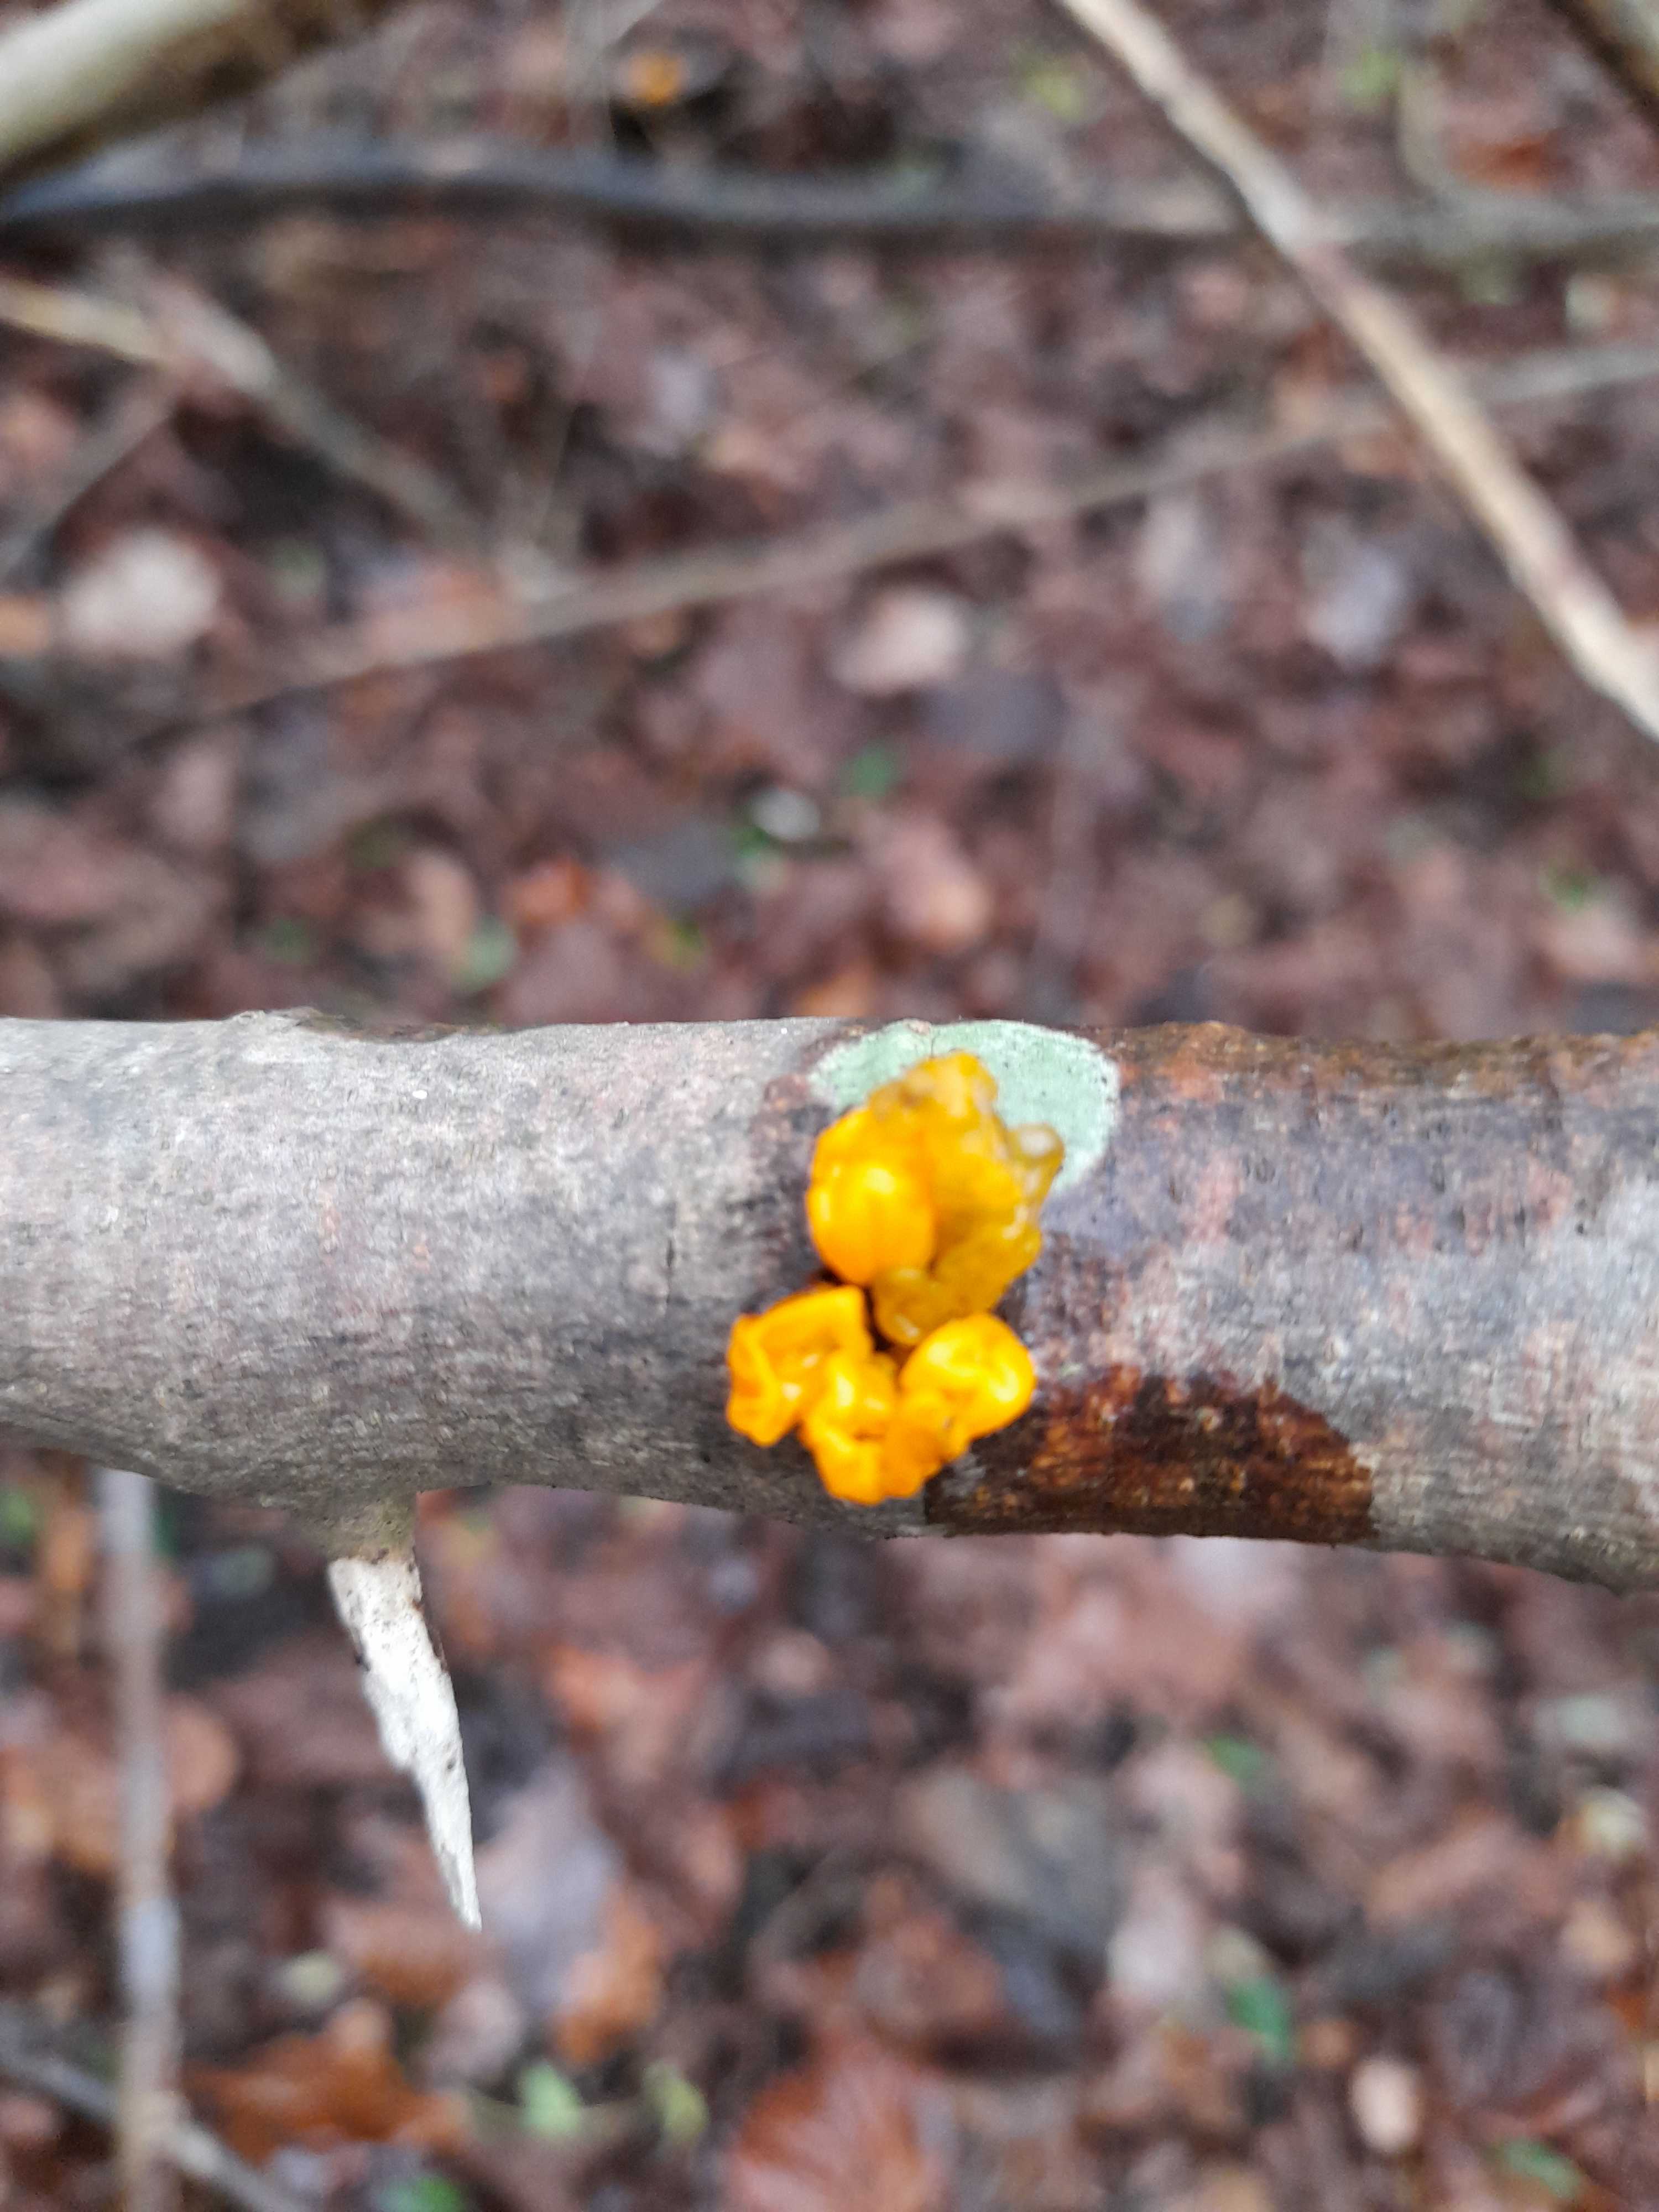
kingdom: Fungi
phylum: Basidiomycota
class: Tremellomycetes
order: Tremellales
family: Tremellaceae
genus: Tremella
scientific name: Tremella mesenterica
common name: gul bævresvamp
